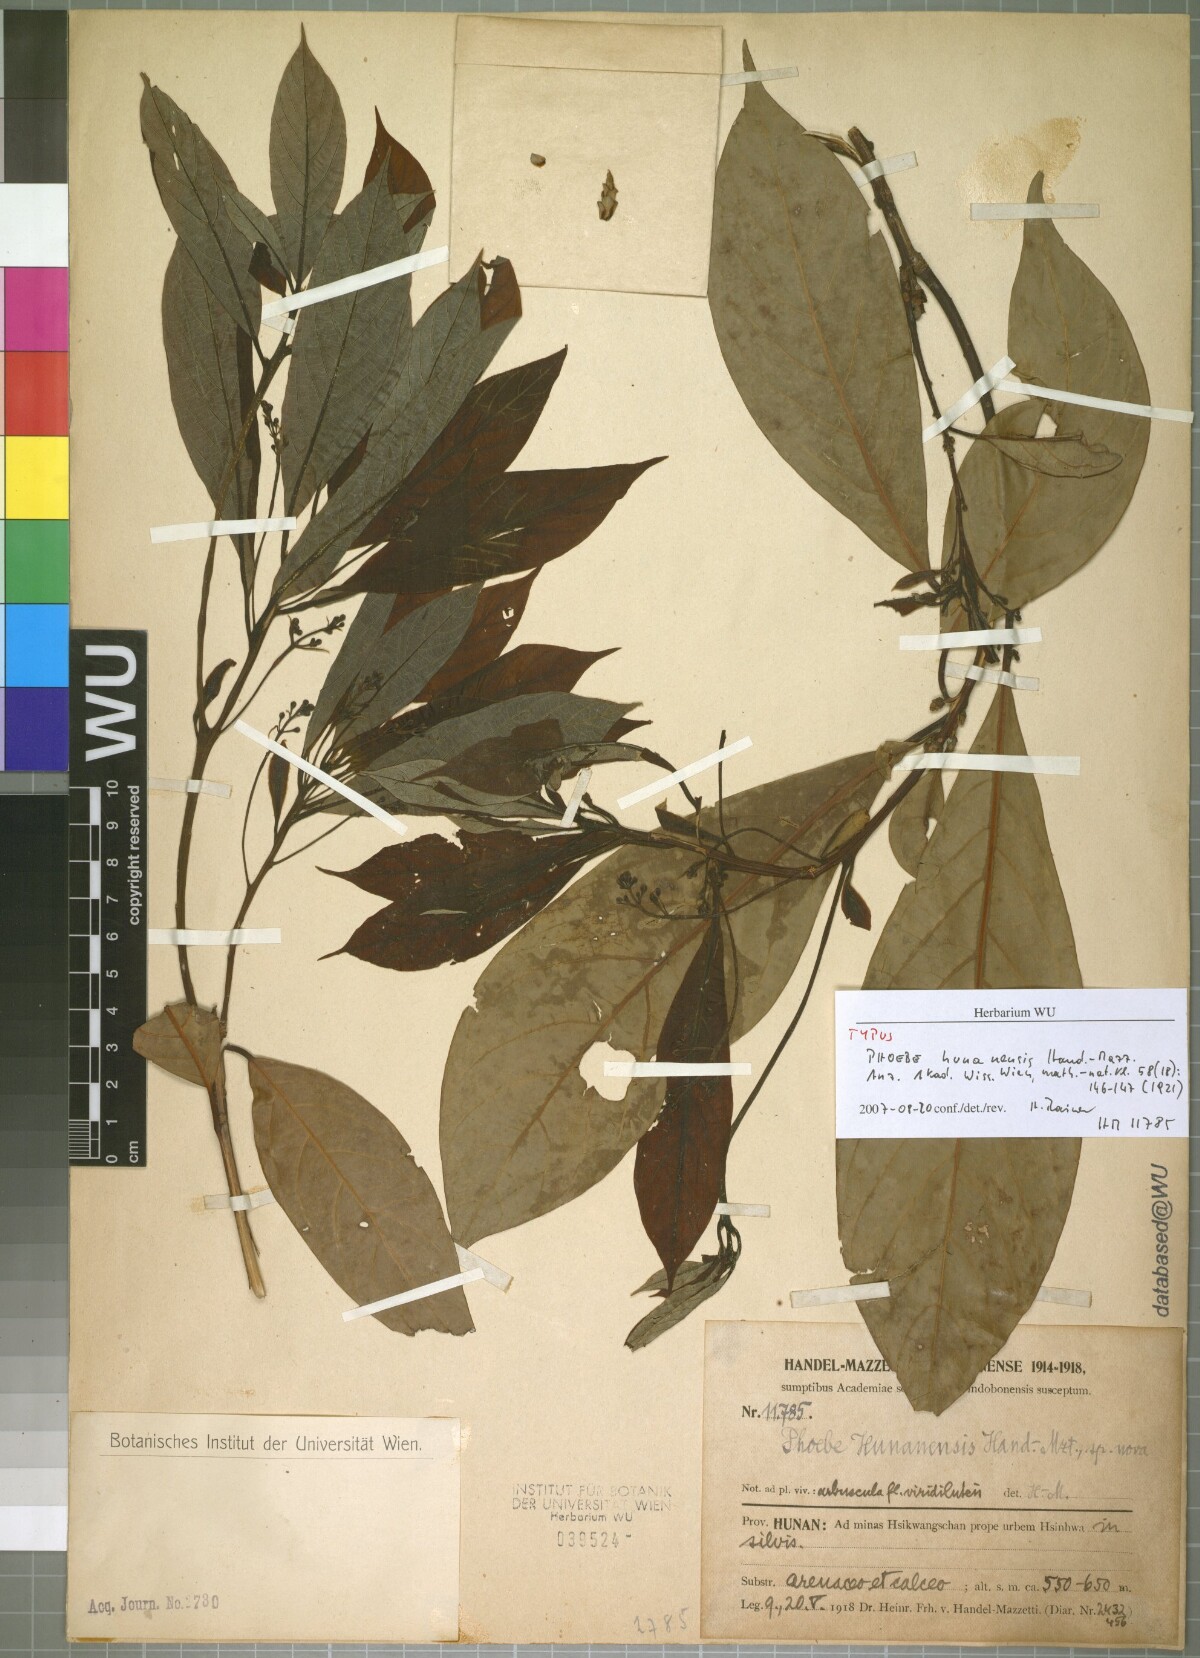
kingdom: Plantae
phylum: Tracheophyta
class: Magnoliopsida
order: Laurales
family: Lauraceae
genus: Phoebe
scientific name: Phoebe hunanensis
